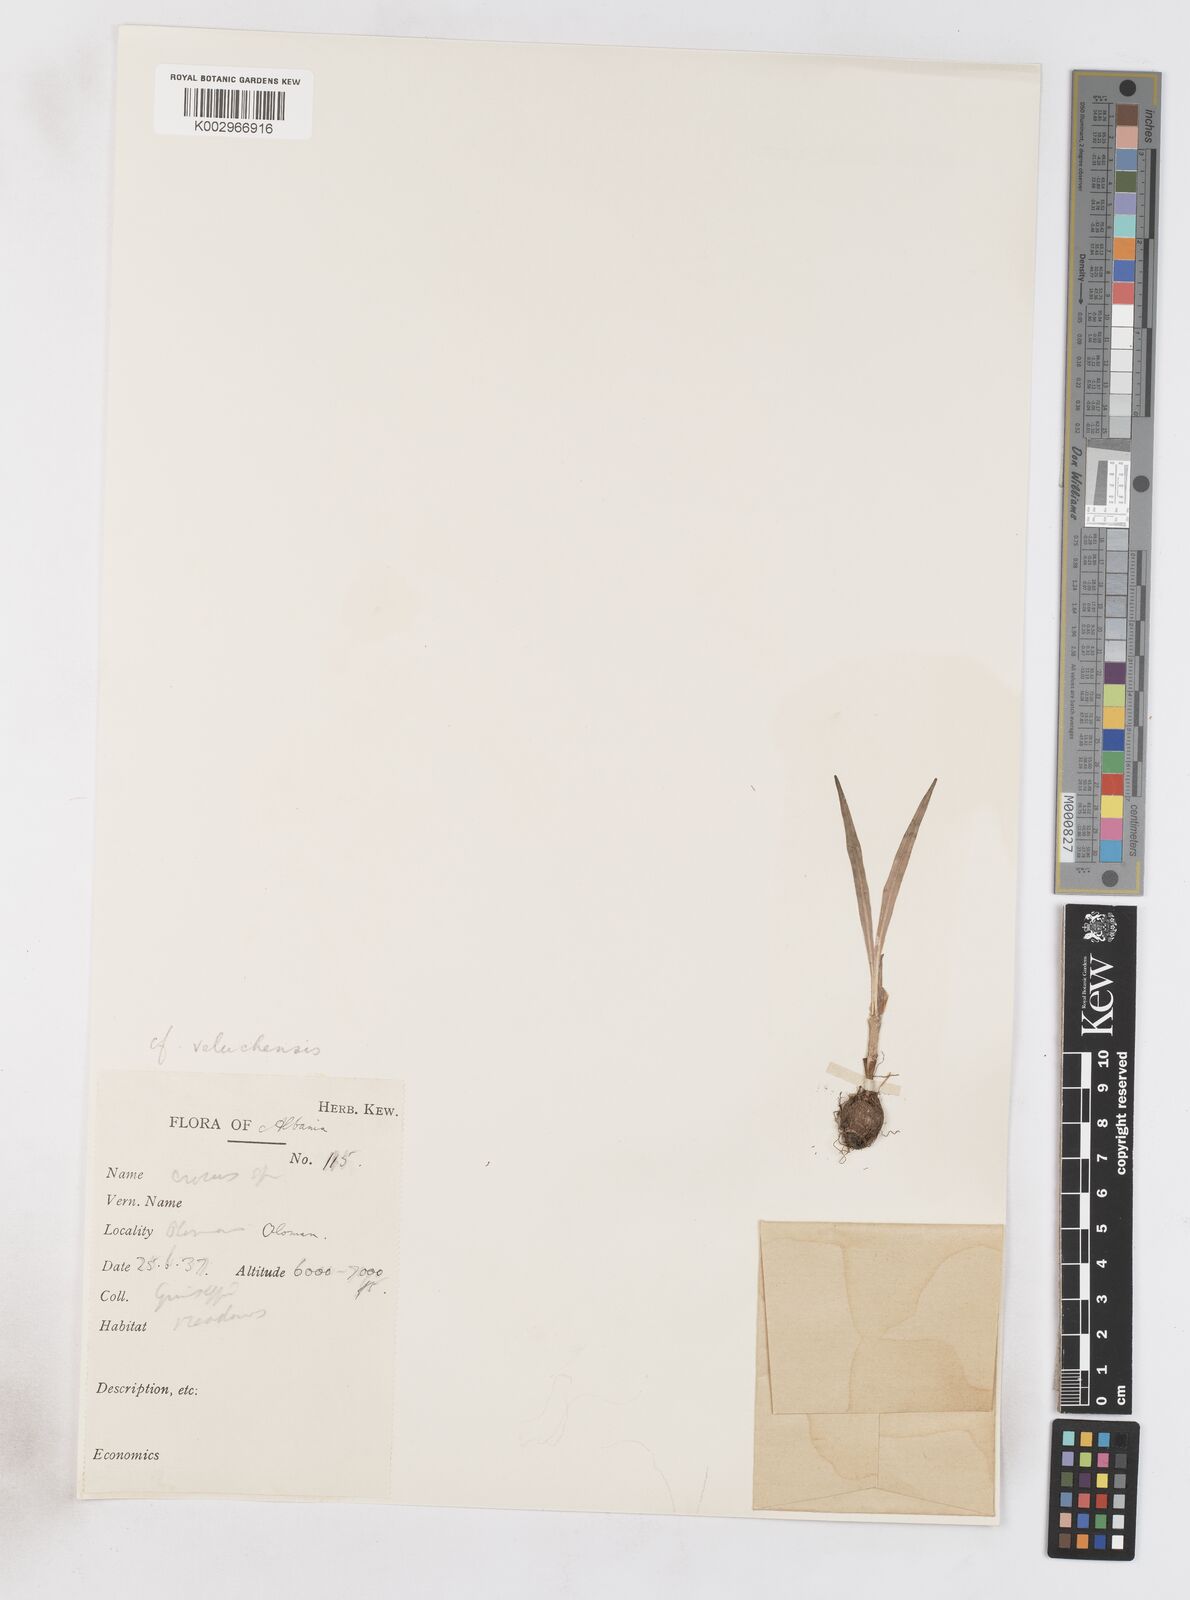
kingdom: Plantae
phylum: Tracheophyta
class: Liliopsida
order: Asparagales
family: Iridaceae
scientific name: Iridaceae
